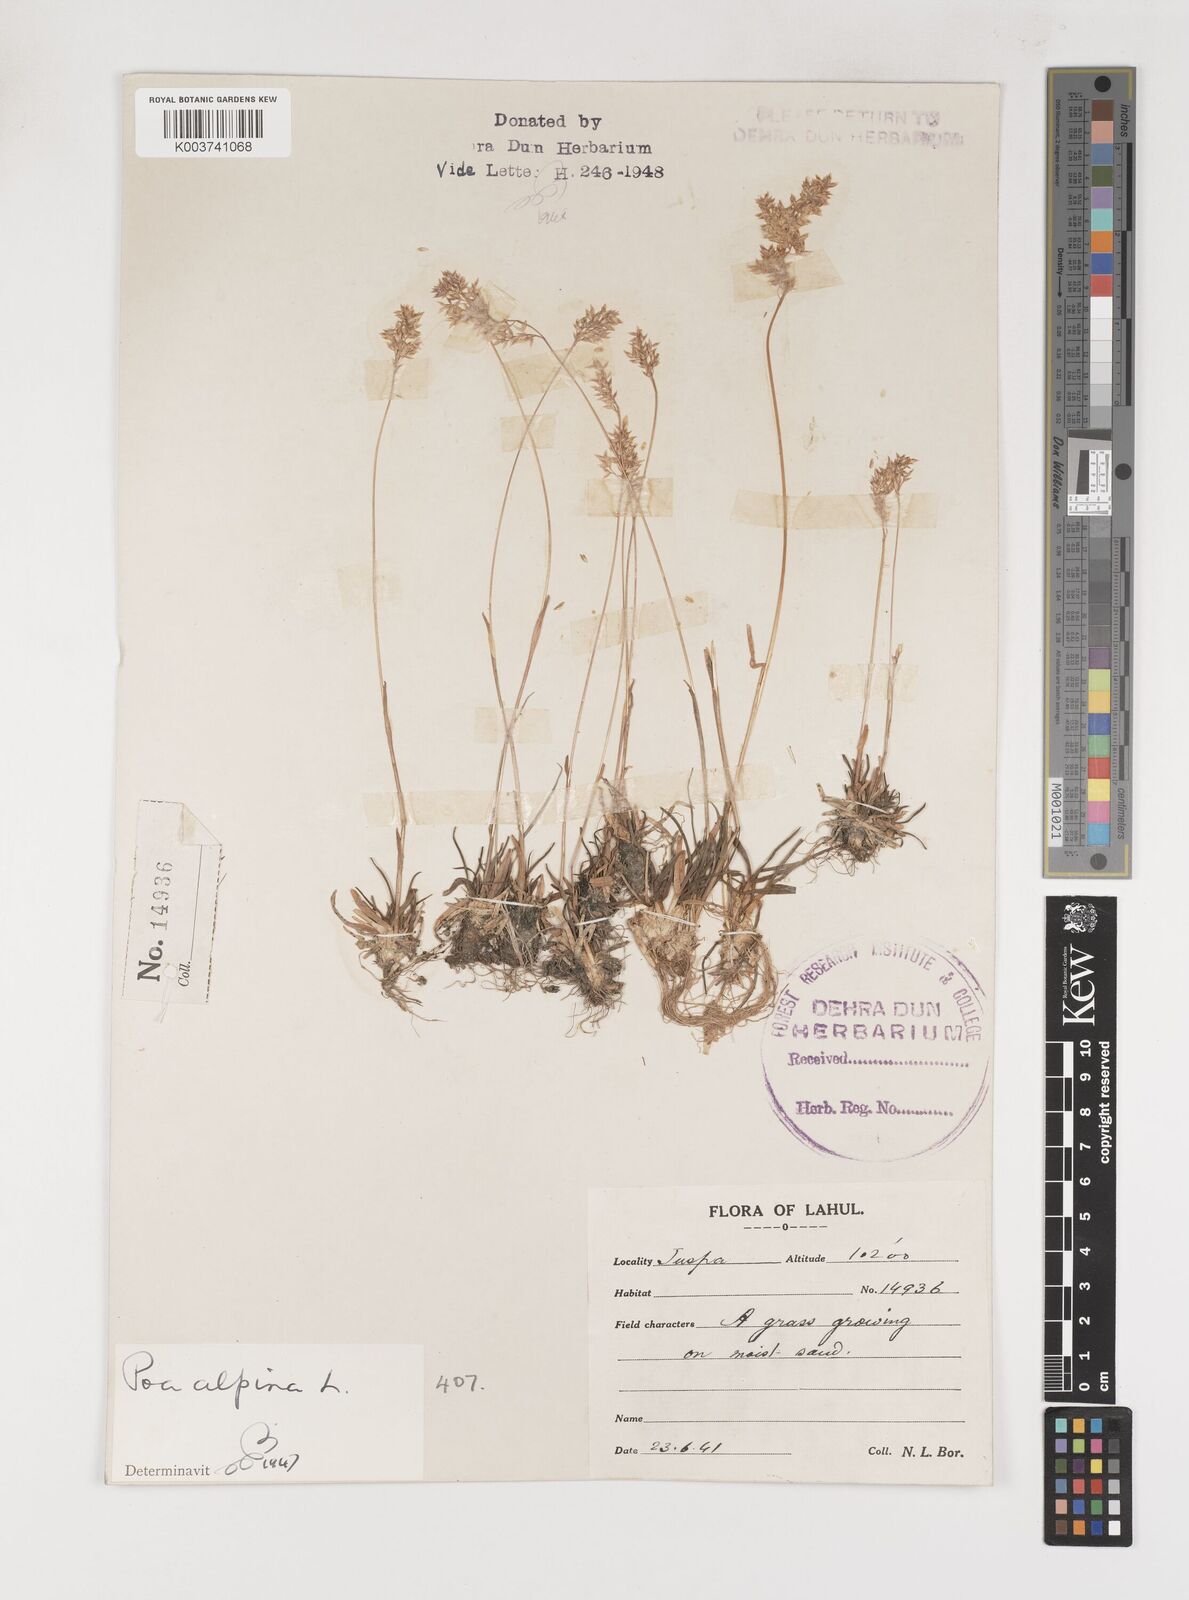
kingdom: Plantae
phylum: Tracheophyta
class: Liliopsida
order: Poales
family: Poaceae
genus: Poa
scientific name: Poa alpina
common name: Alpine bluegrass
